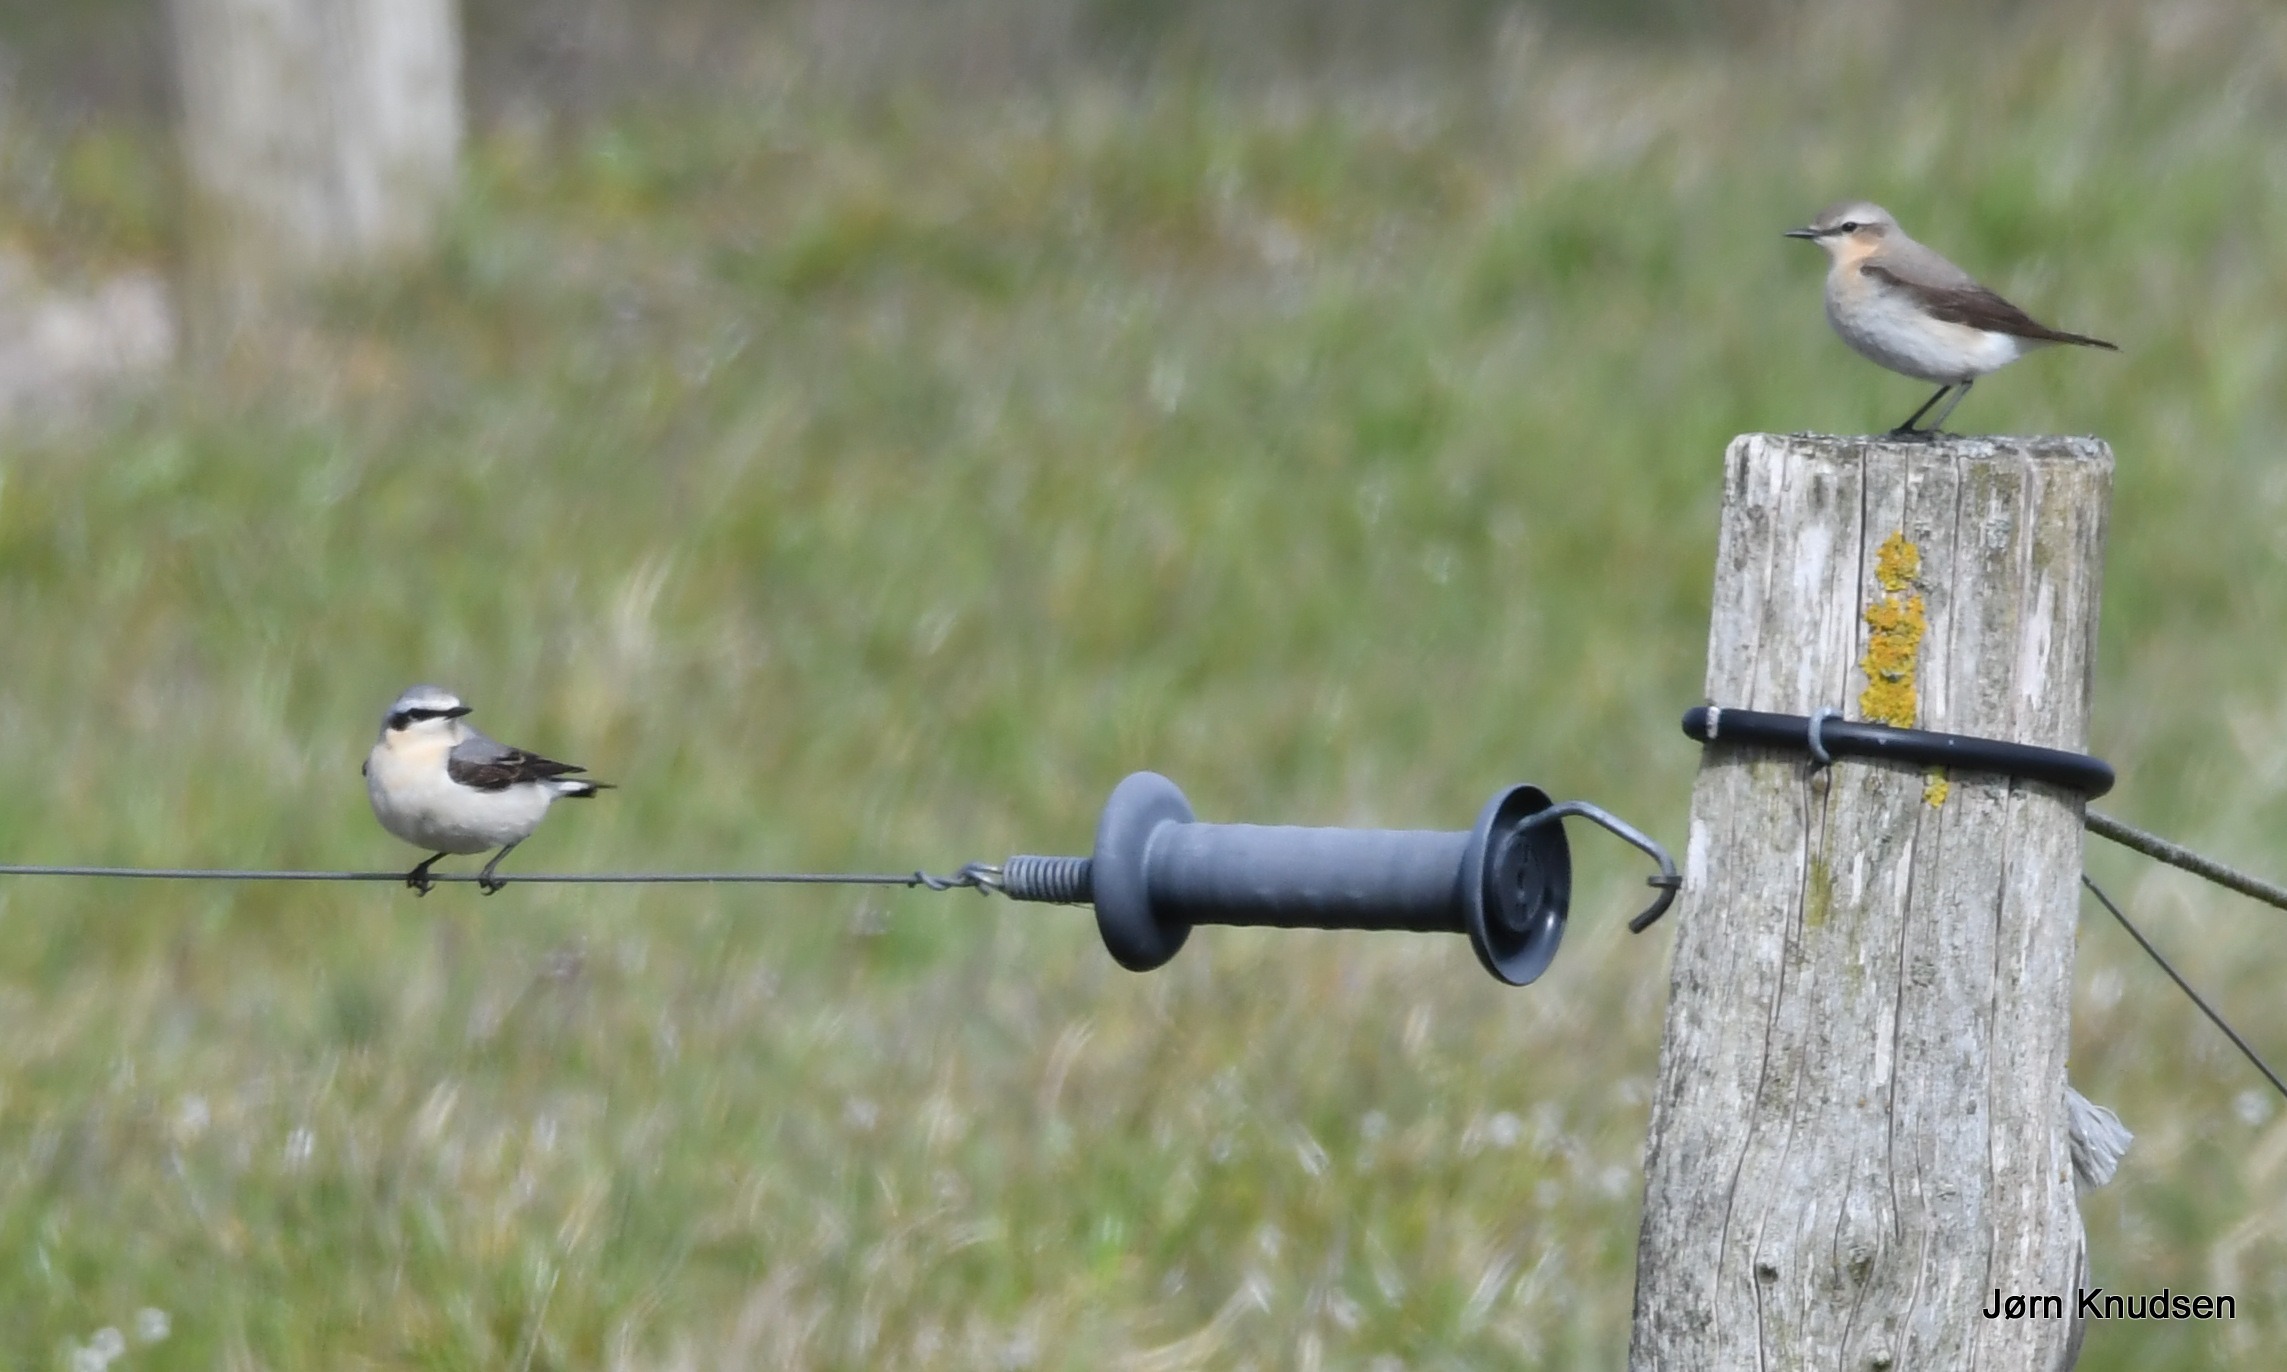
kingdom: Animalia
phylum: Chordata
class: Aves
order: Passeriformes
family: Muscicapidae
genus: Oenanthe
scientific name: Oenanthe oenanthe
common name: Stenpikker
